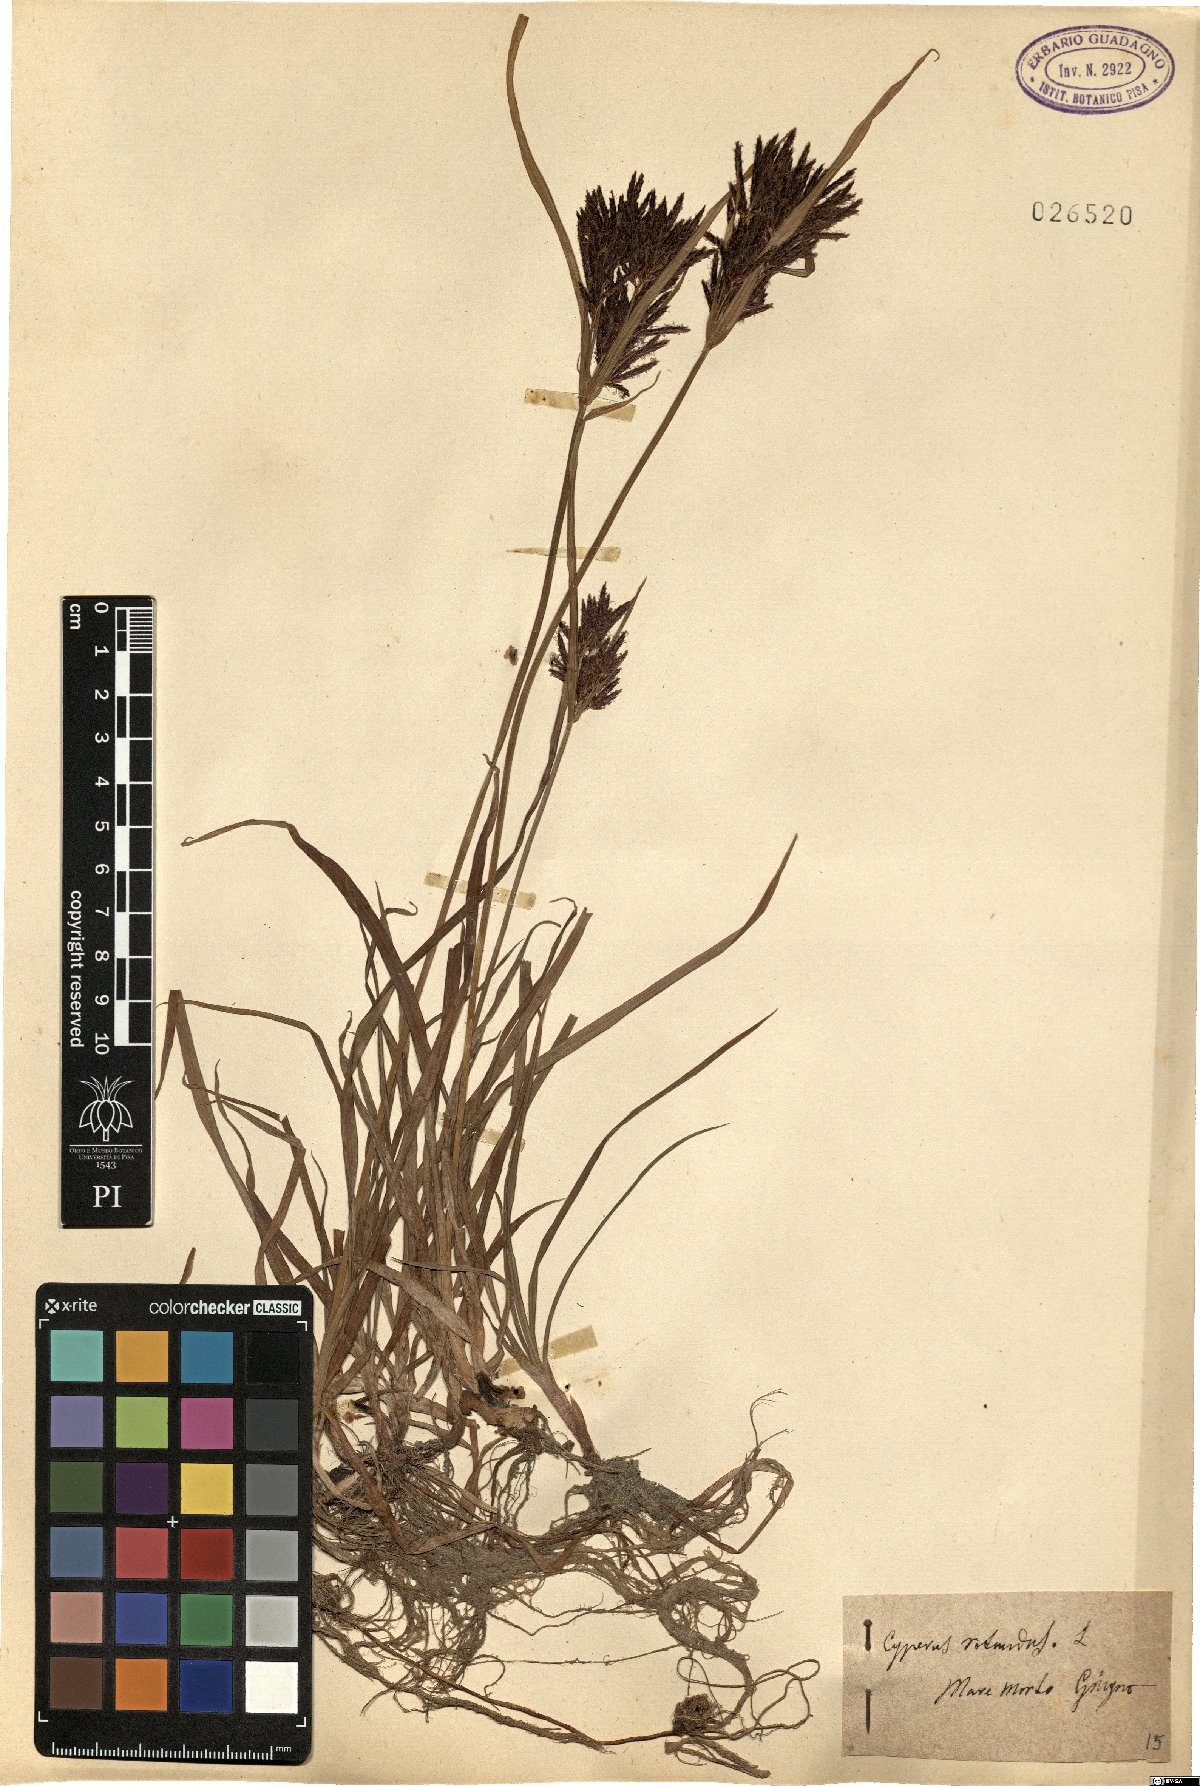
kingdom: Plantae
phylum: Tracheophyta
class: Liliopsida
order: Poales
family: Cyperaceae
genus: Cyperus
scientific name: Cyperus rotundus
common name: Nutgrass
